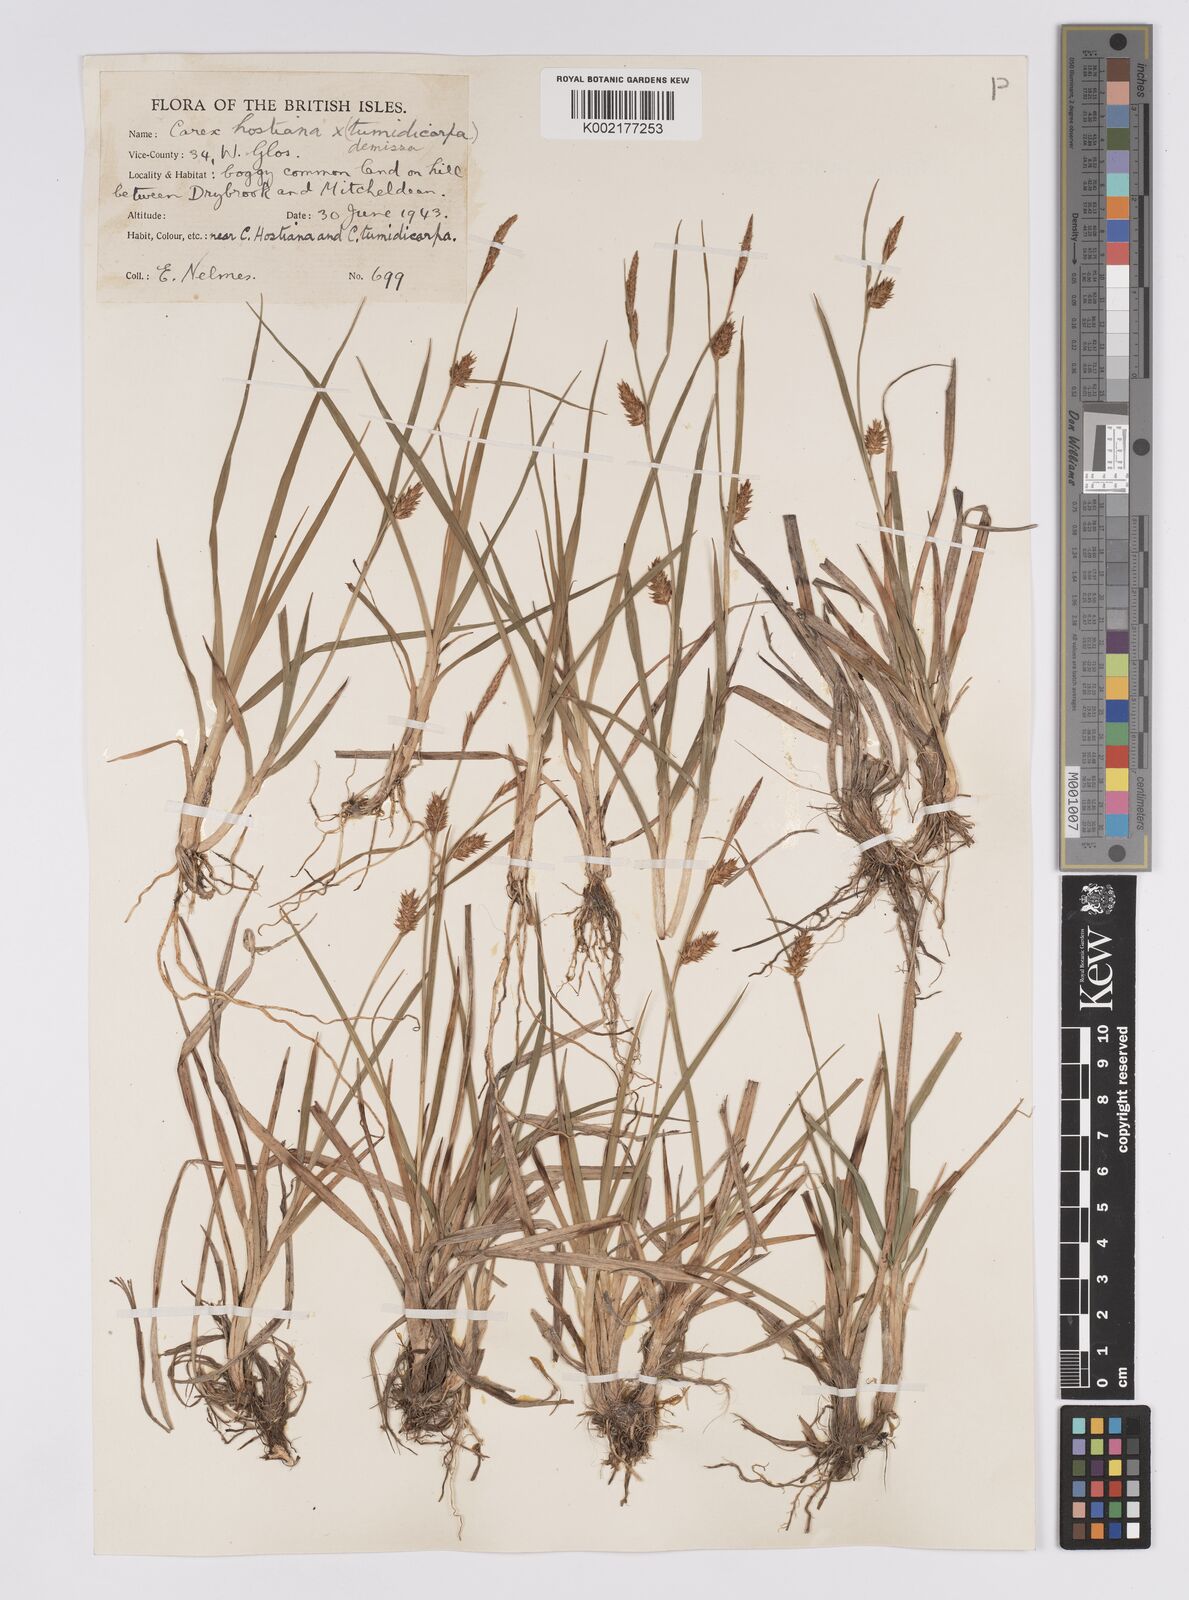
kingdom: Plantae
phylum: Tracheophyta
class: Liliopsida
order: Poales
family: Cyperaceae
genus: Carex
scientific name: Carex hostiana
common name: Tawny sedge
